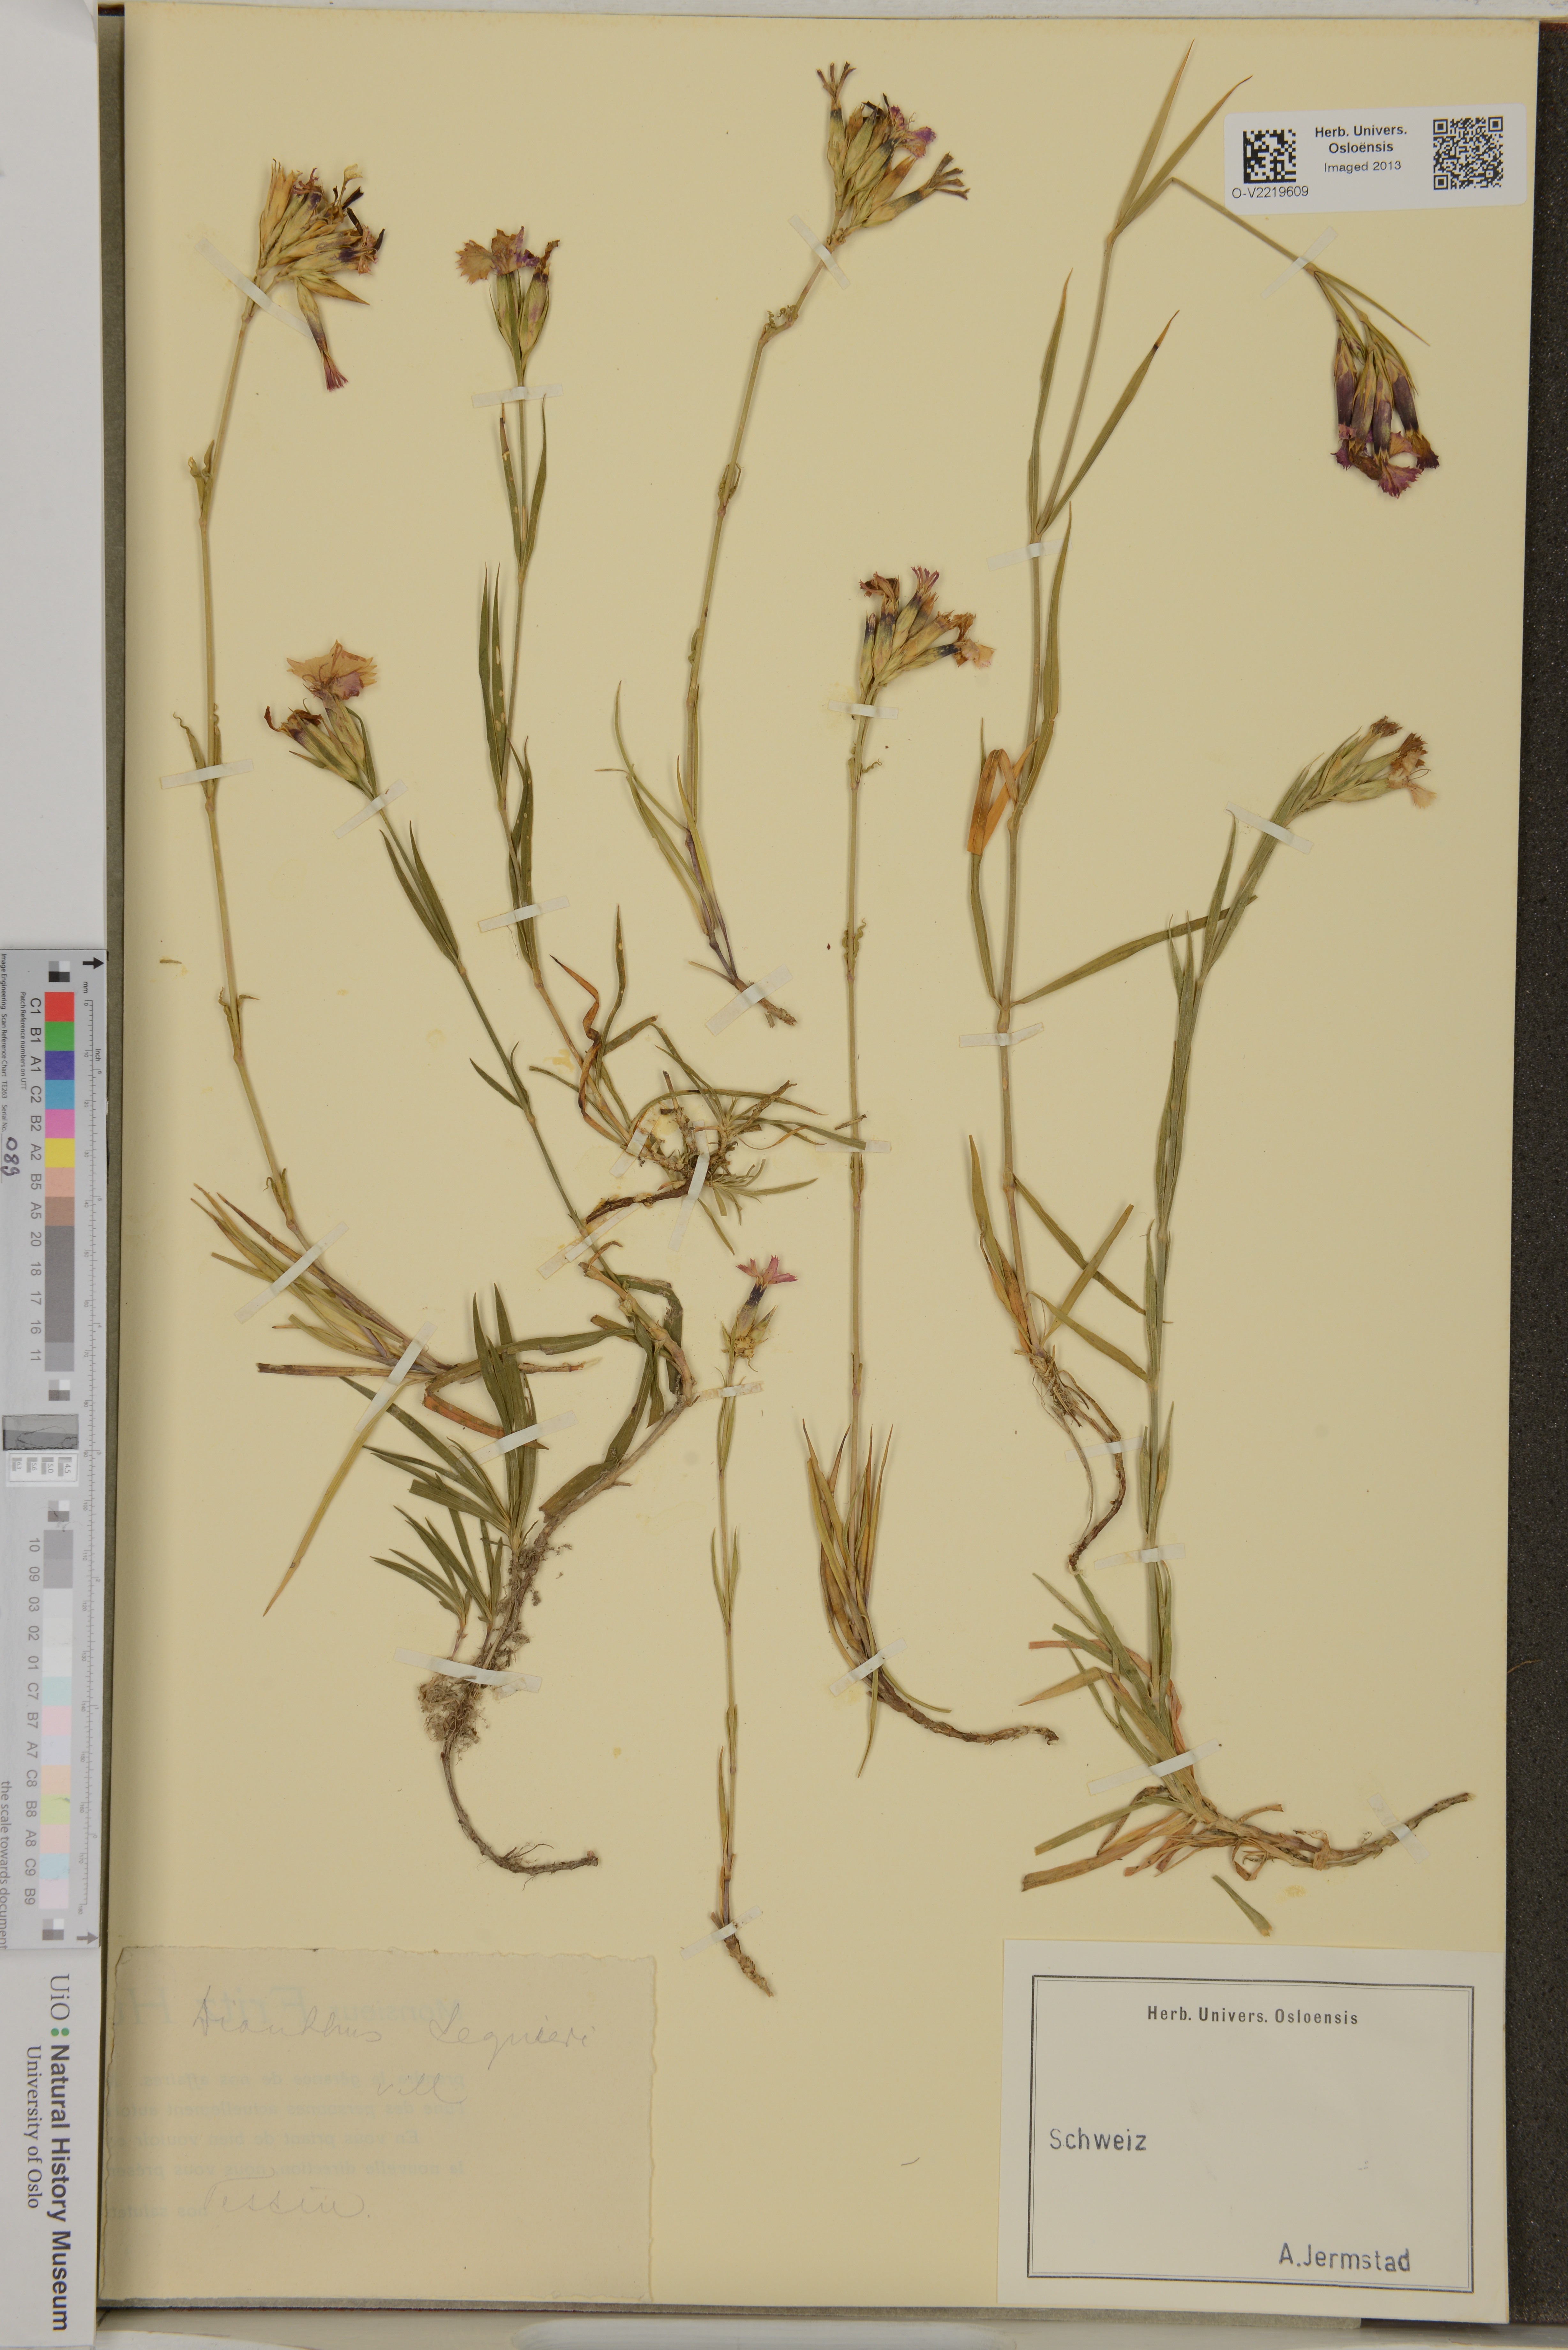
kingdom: Plantae
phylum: Tracheophyta
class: Magnoliopsida
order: Caryophyllales
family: Caryophyllaceae
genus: Dianthus
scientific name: Dianthus seguieri
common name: Ragged pink
